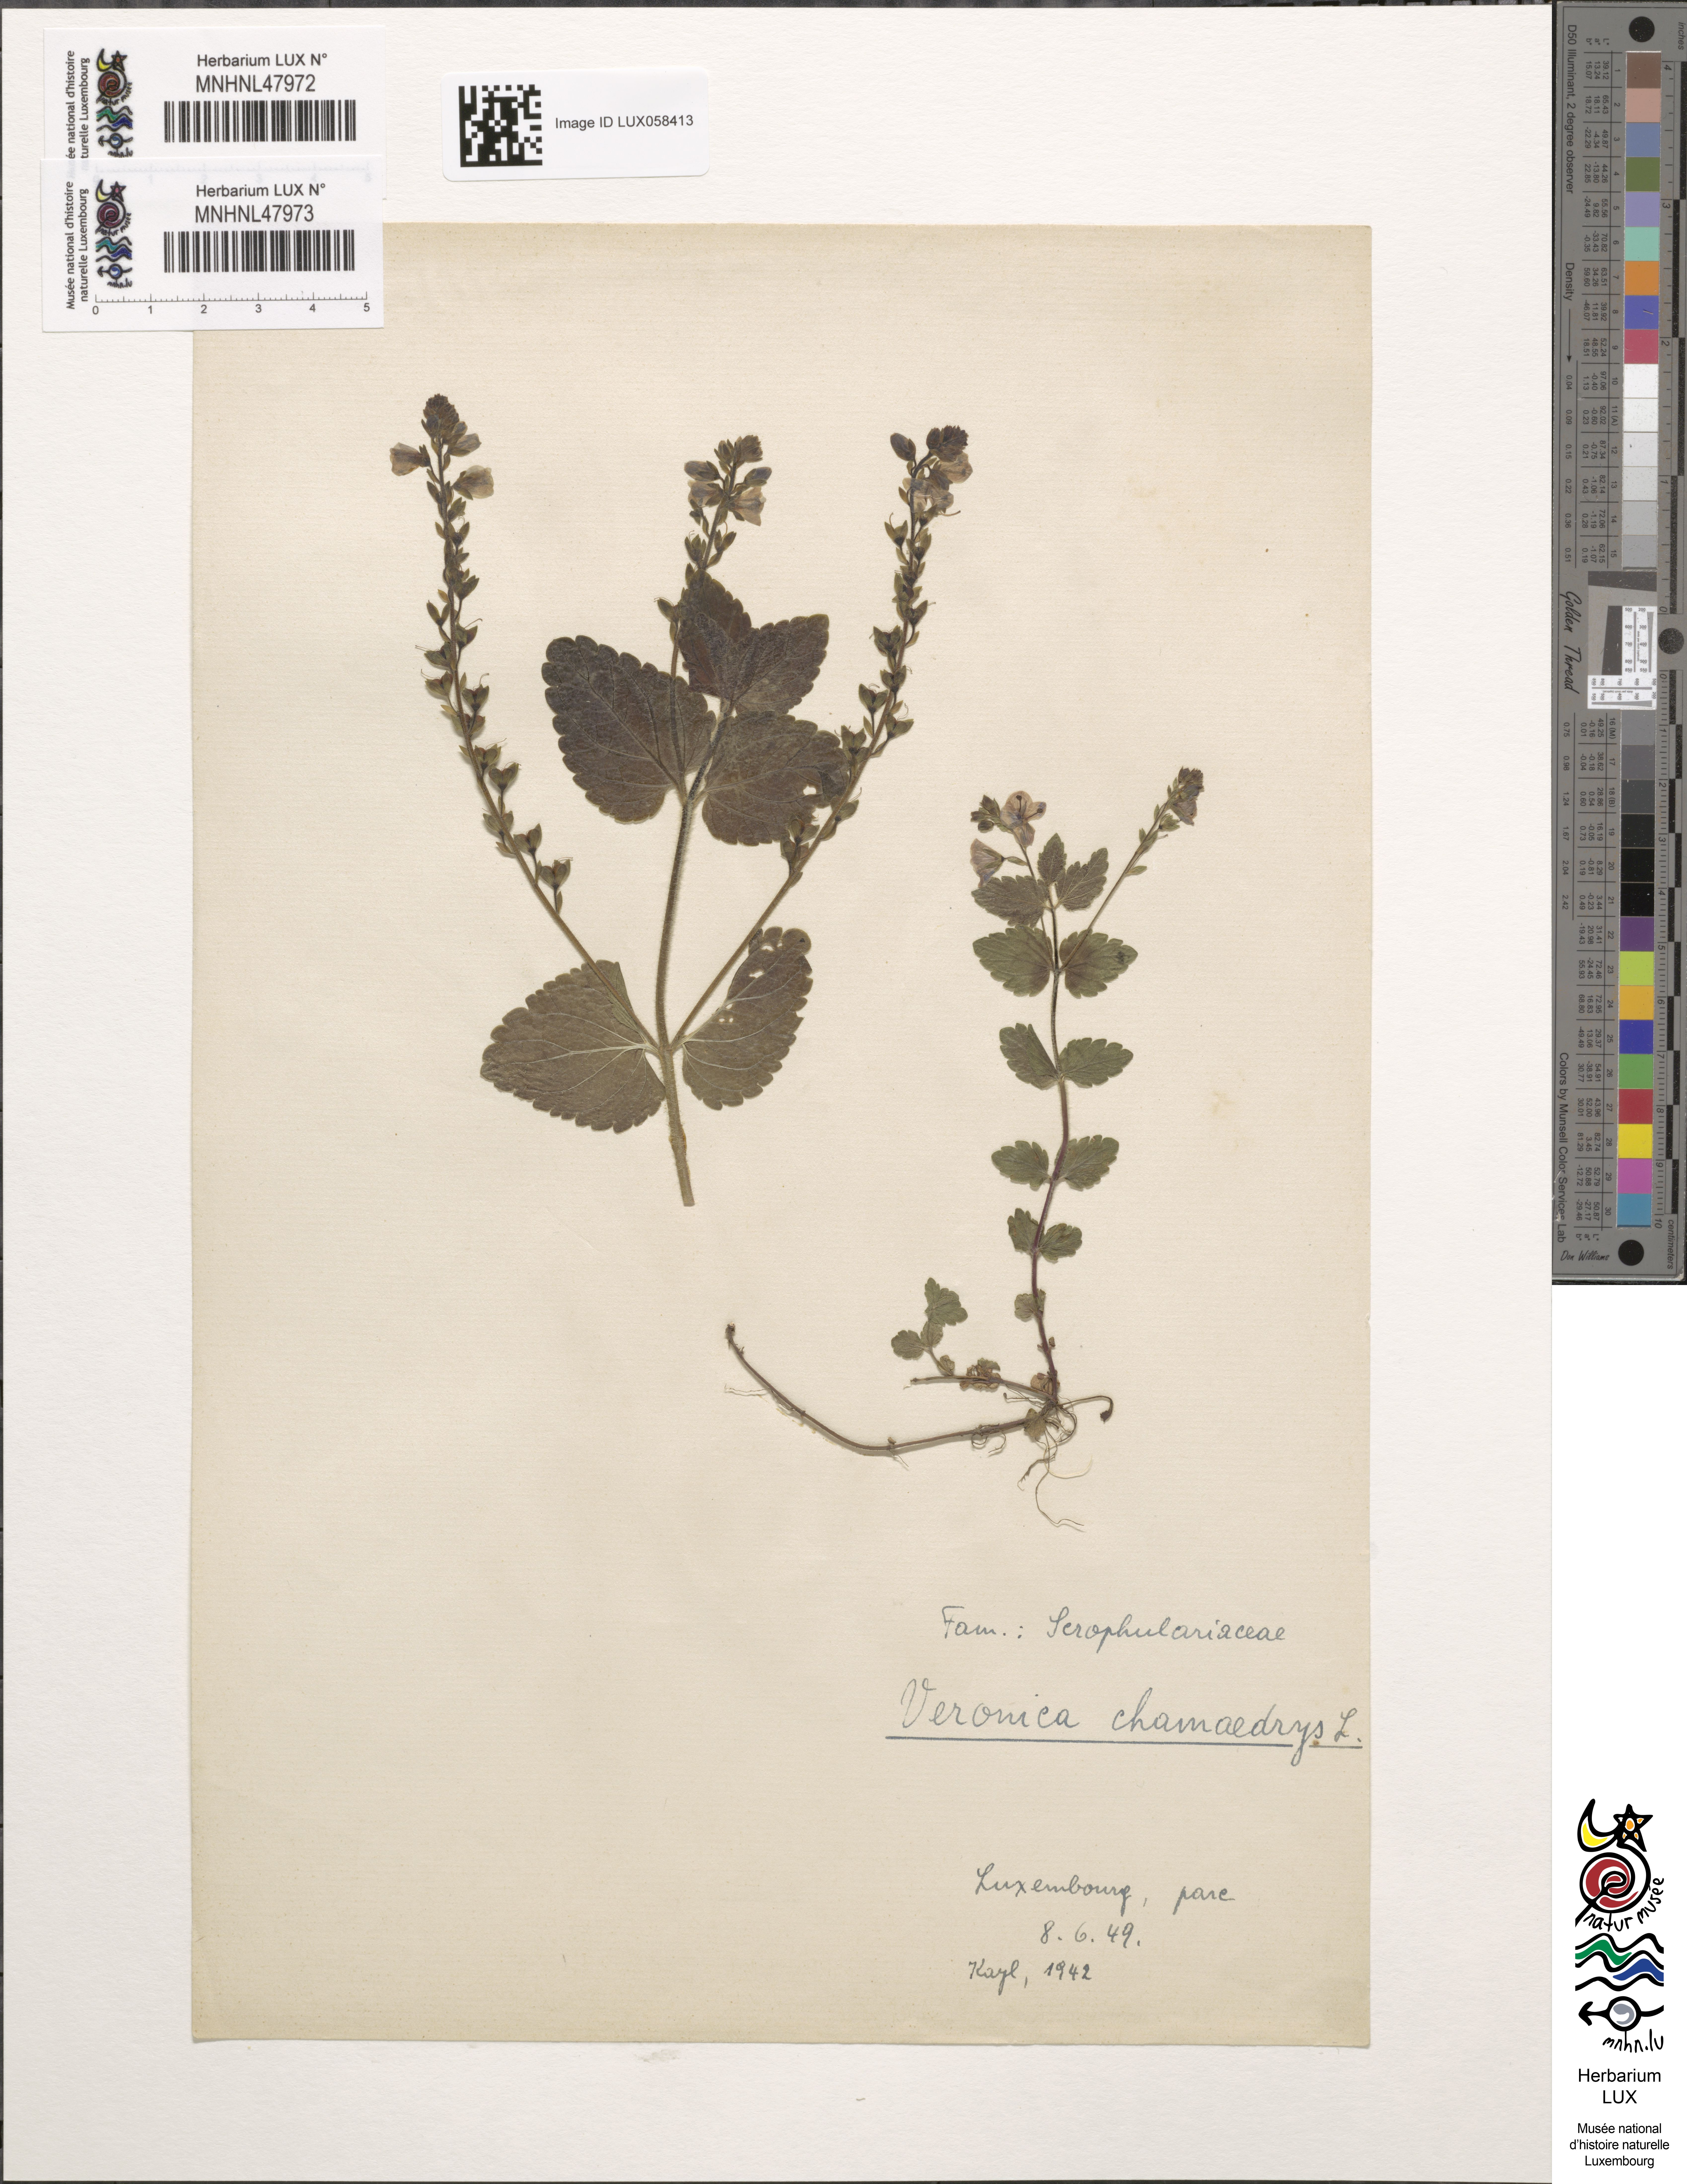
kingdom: Plantae
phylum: Tracheophyta
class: Magnoliopsida
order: Lamiales
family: Plantaginaceae
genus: Veronica
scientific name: Veronica chamaedrys
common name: Germander speedwell
